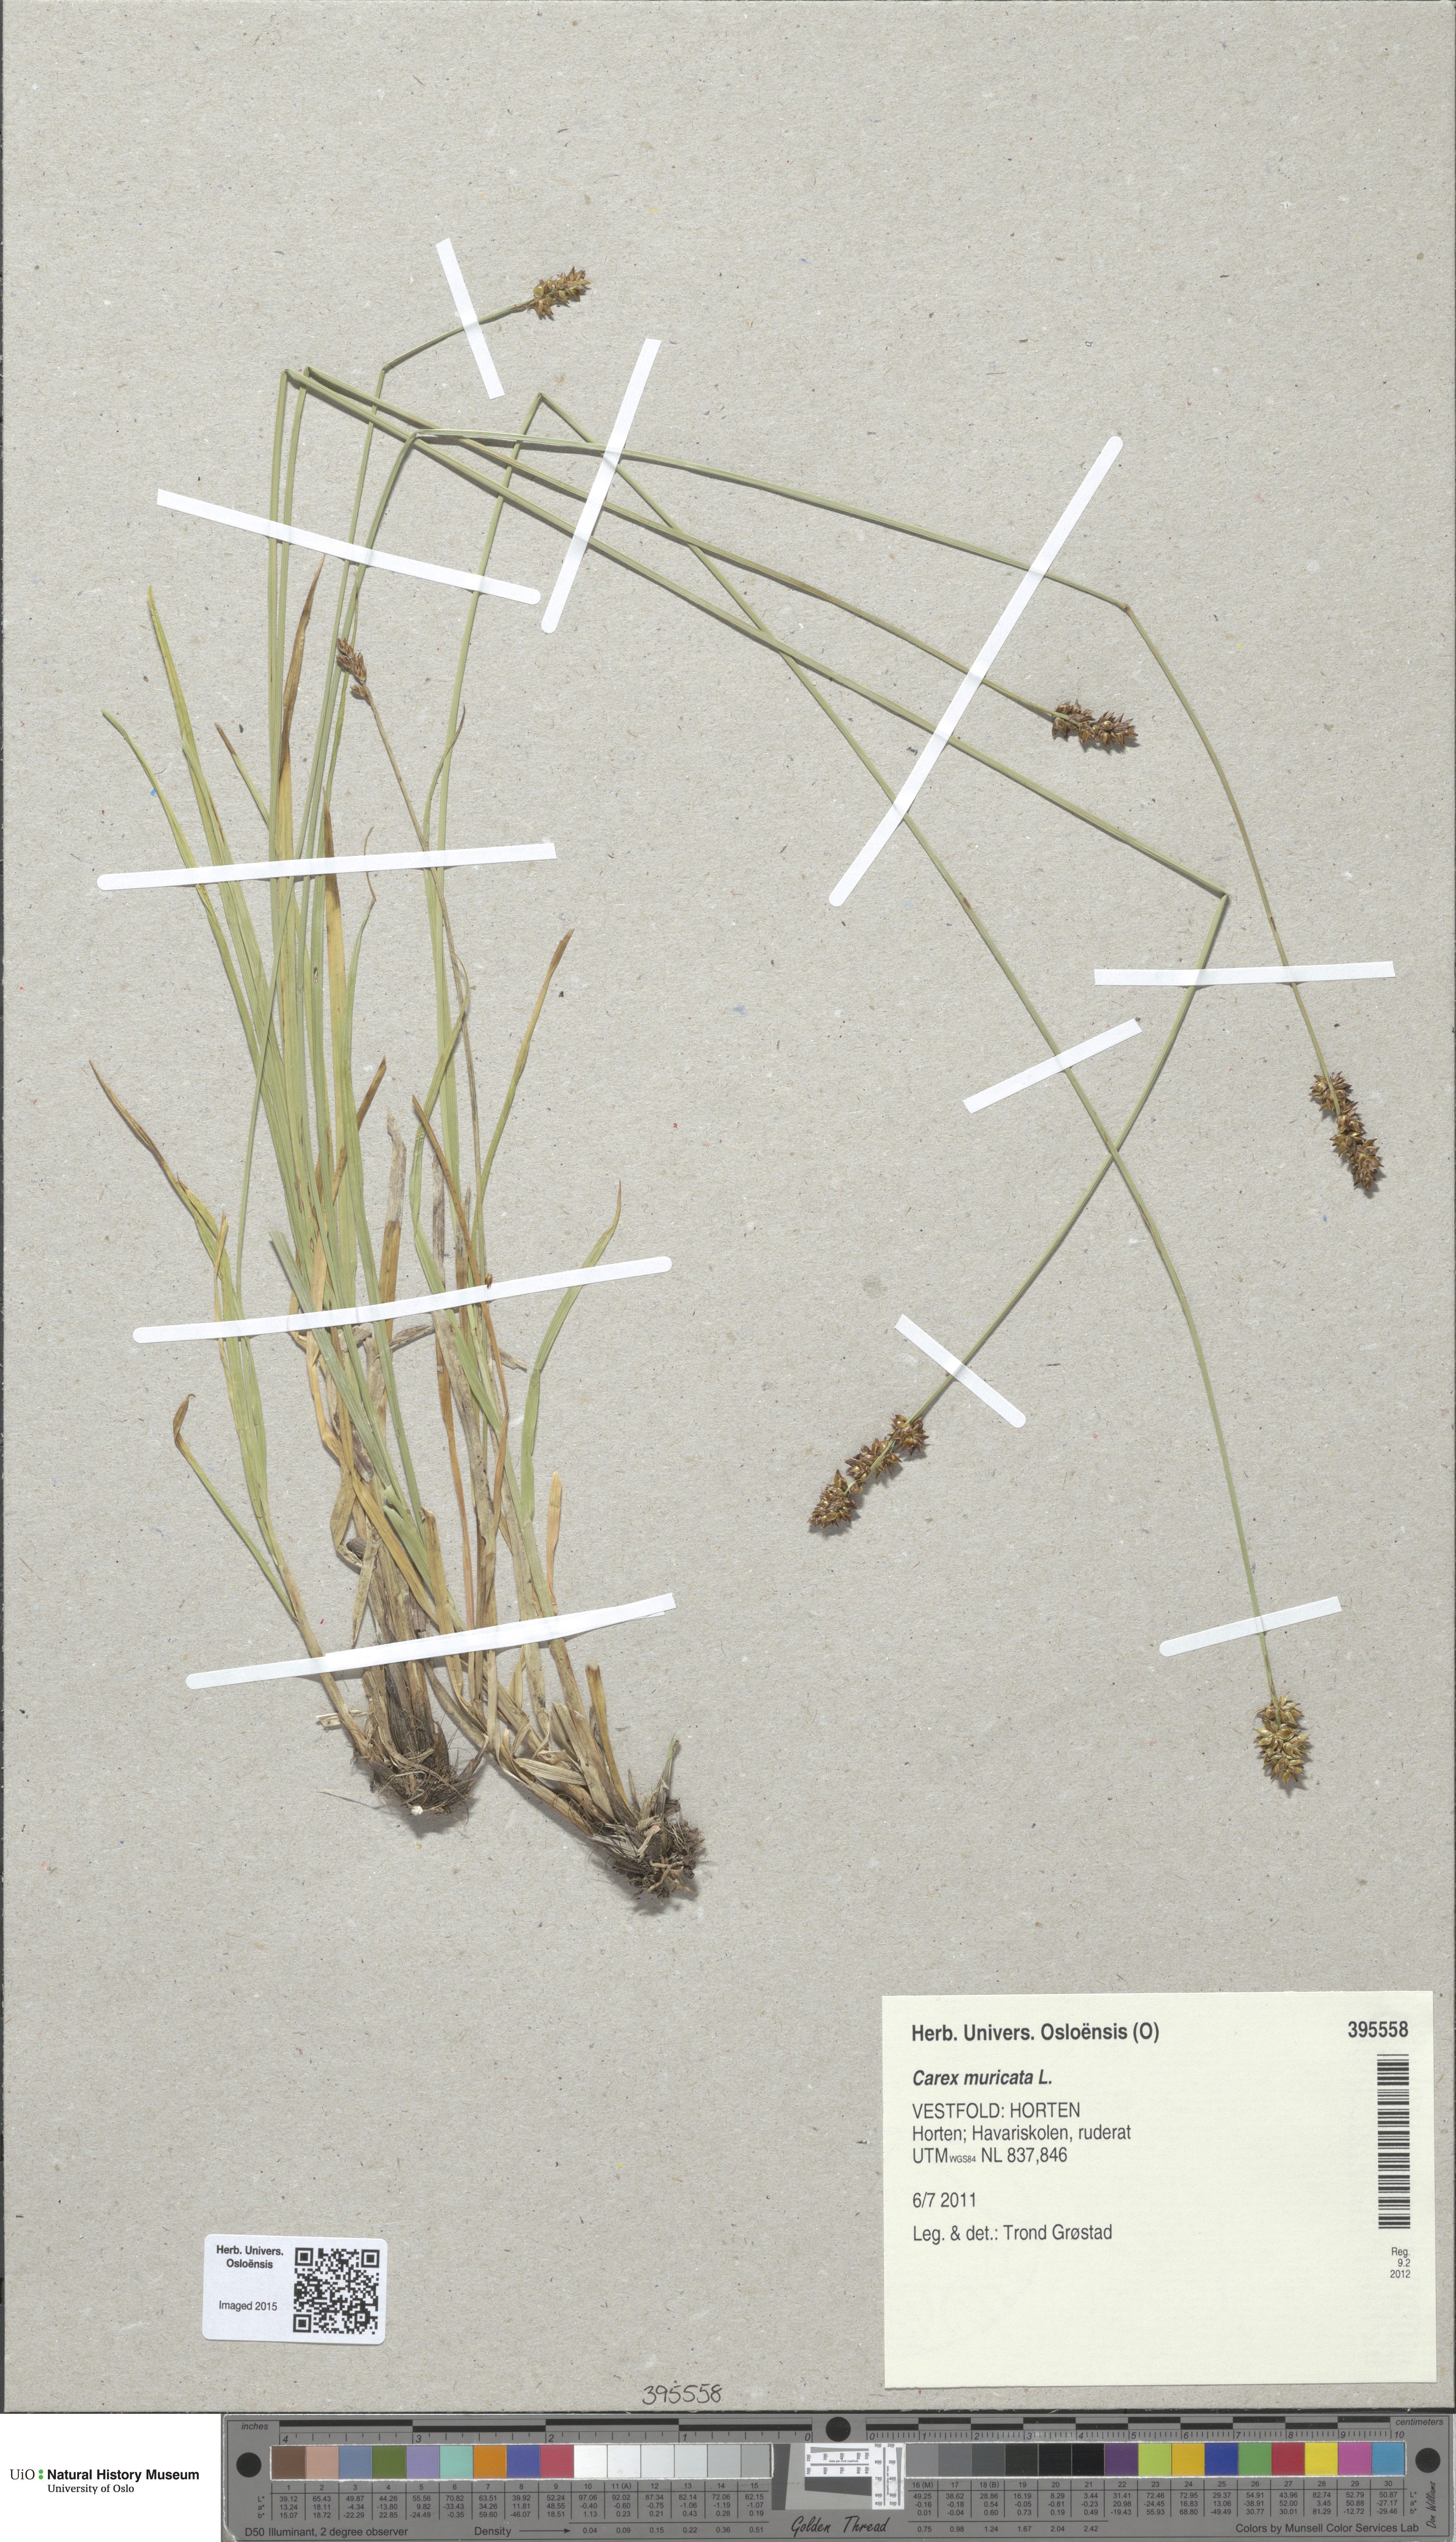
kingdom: Plantae
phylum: Tracheophyta
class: Liliopsida
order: Poales
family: Cyperaceae
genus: Carex
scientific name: Carex muricata
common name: Rough sedge
